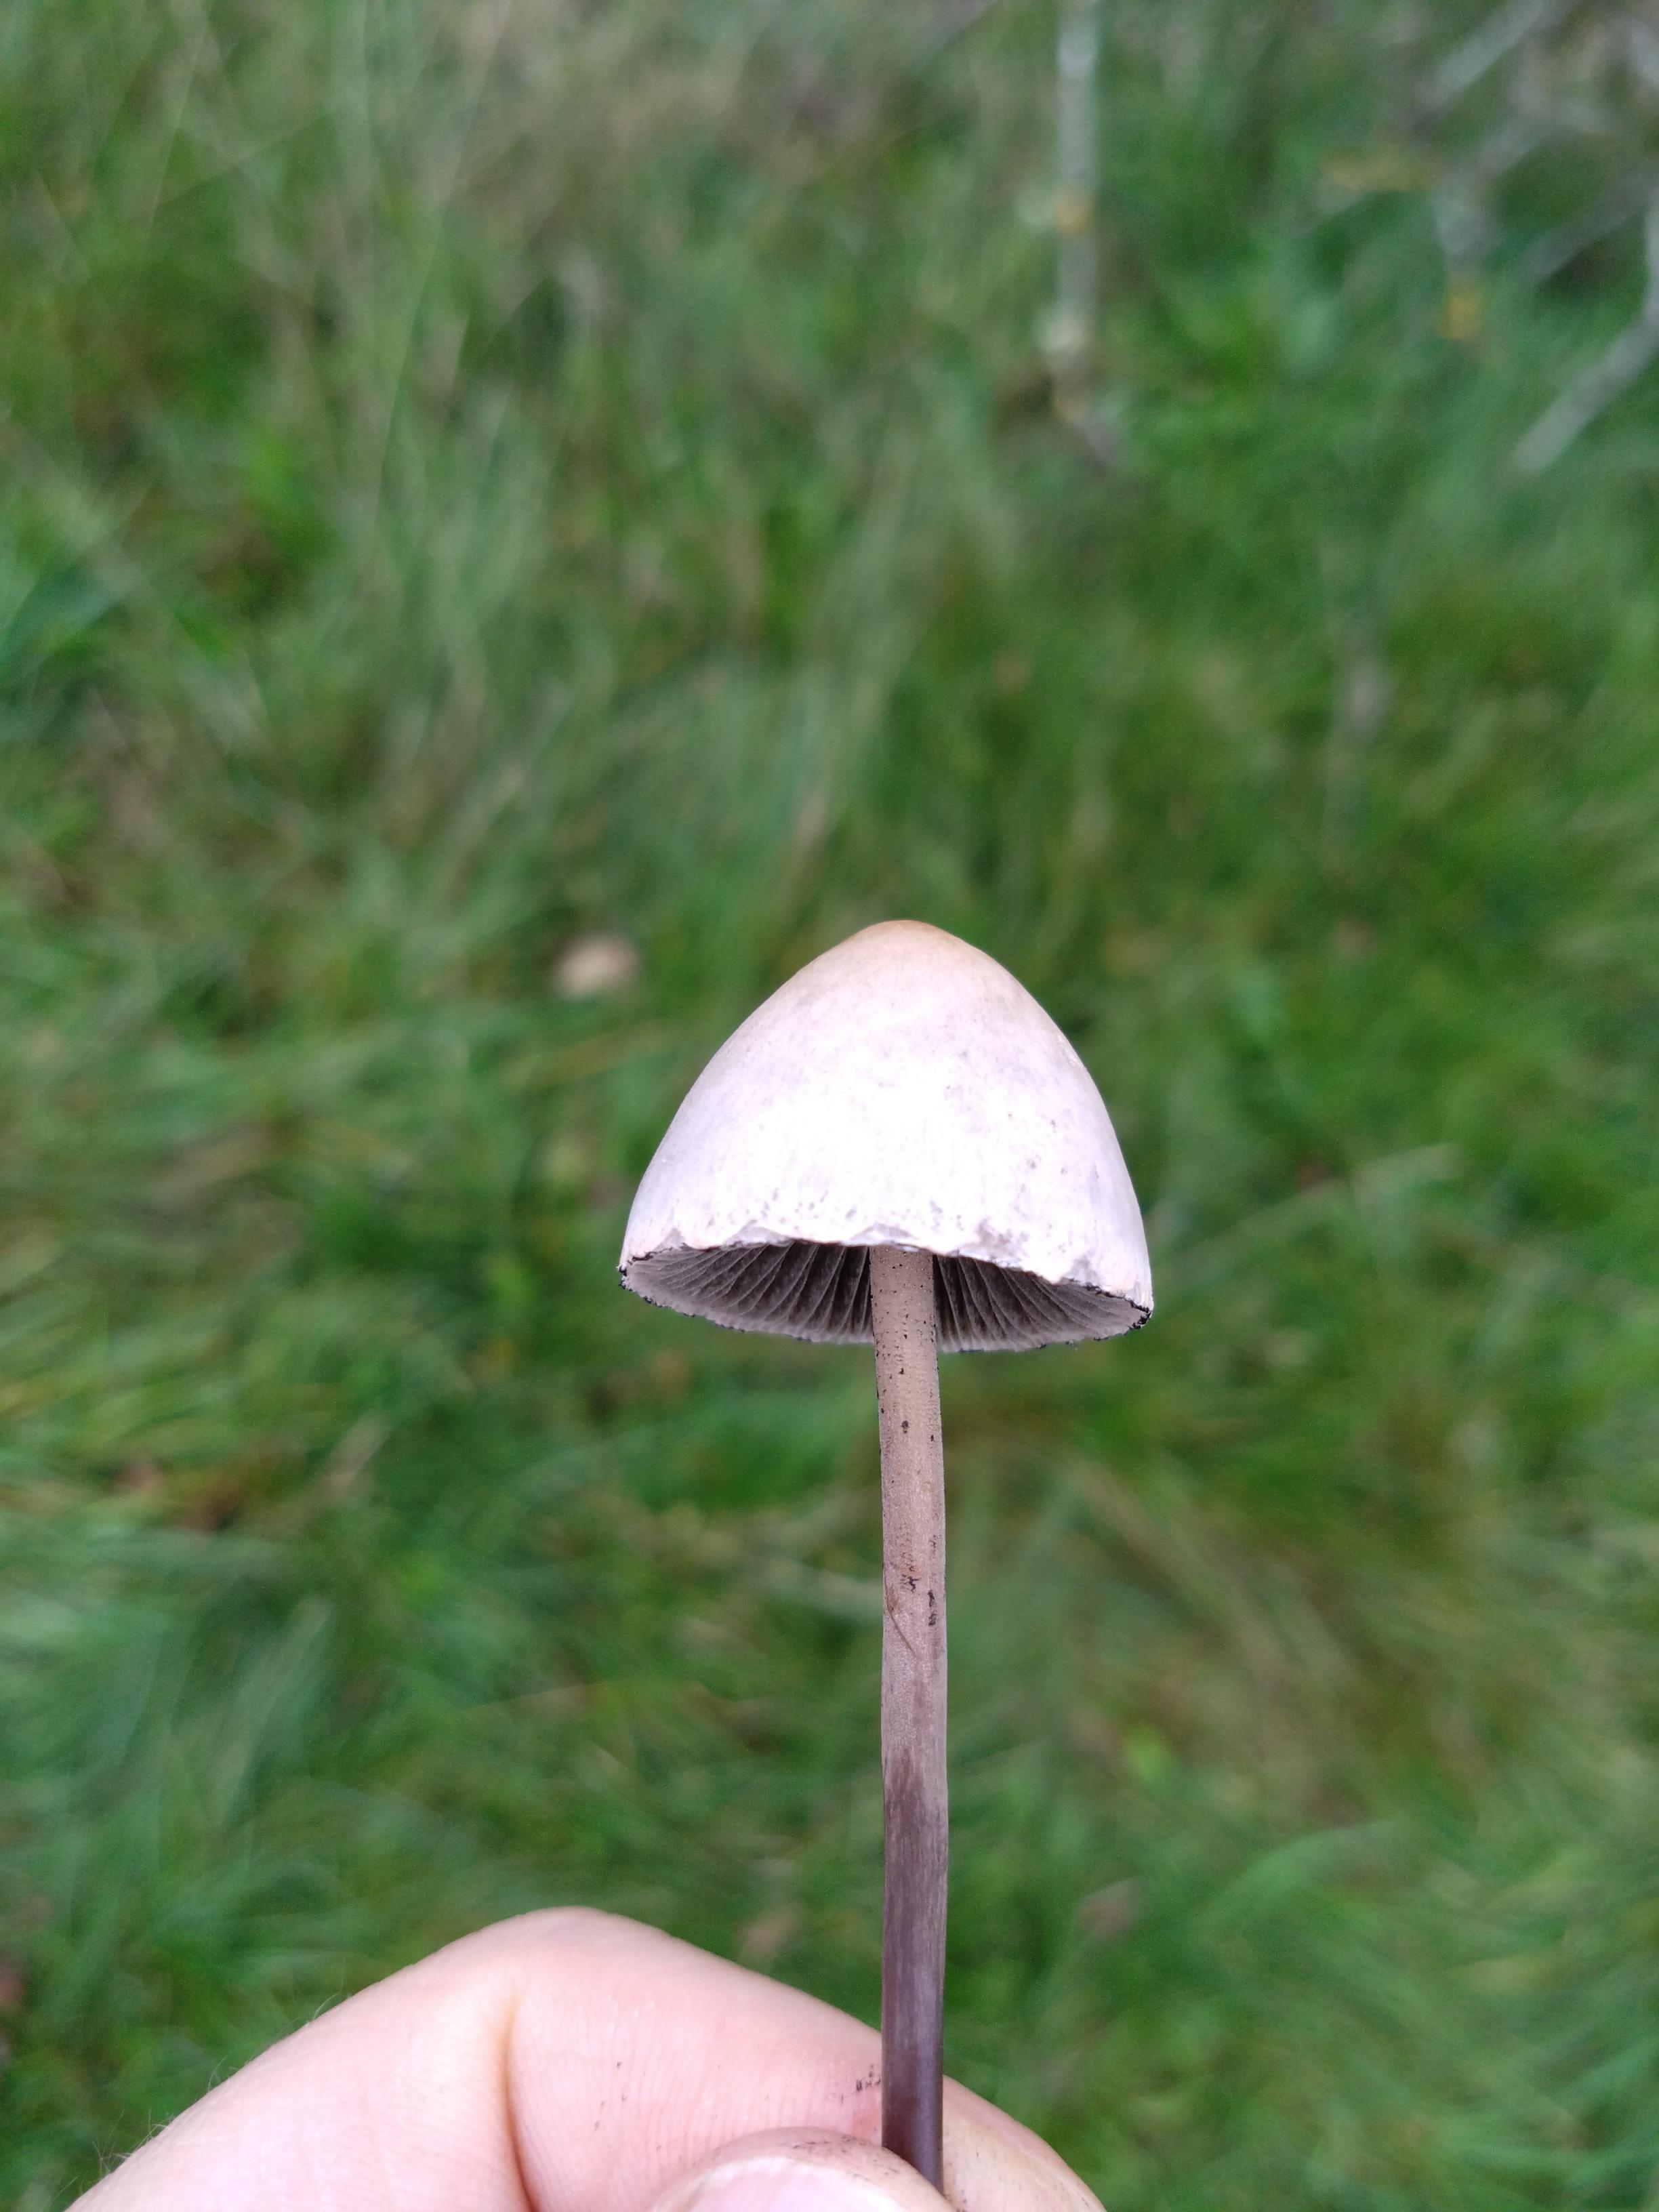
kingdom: Fungi
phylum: Basidiomycota
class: Agaricomycetes
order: Agaricales
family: Bolbitiaceae
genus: Panaeolus
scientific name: Panaeolus papilionaceus
